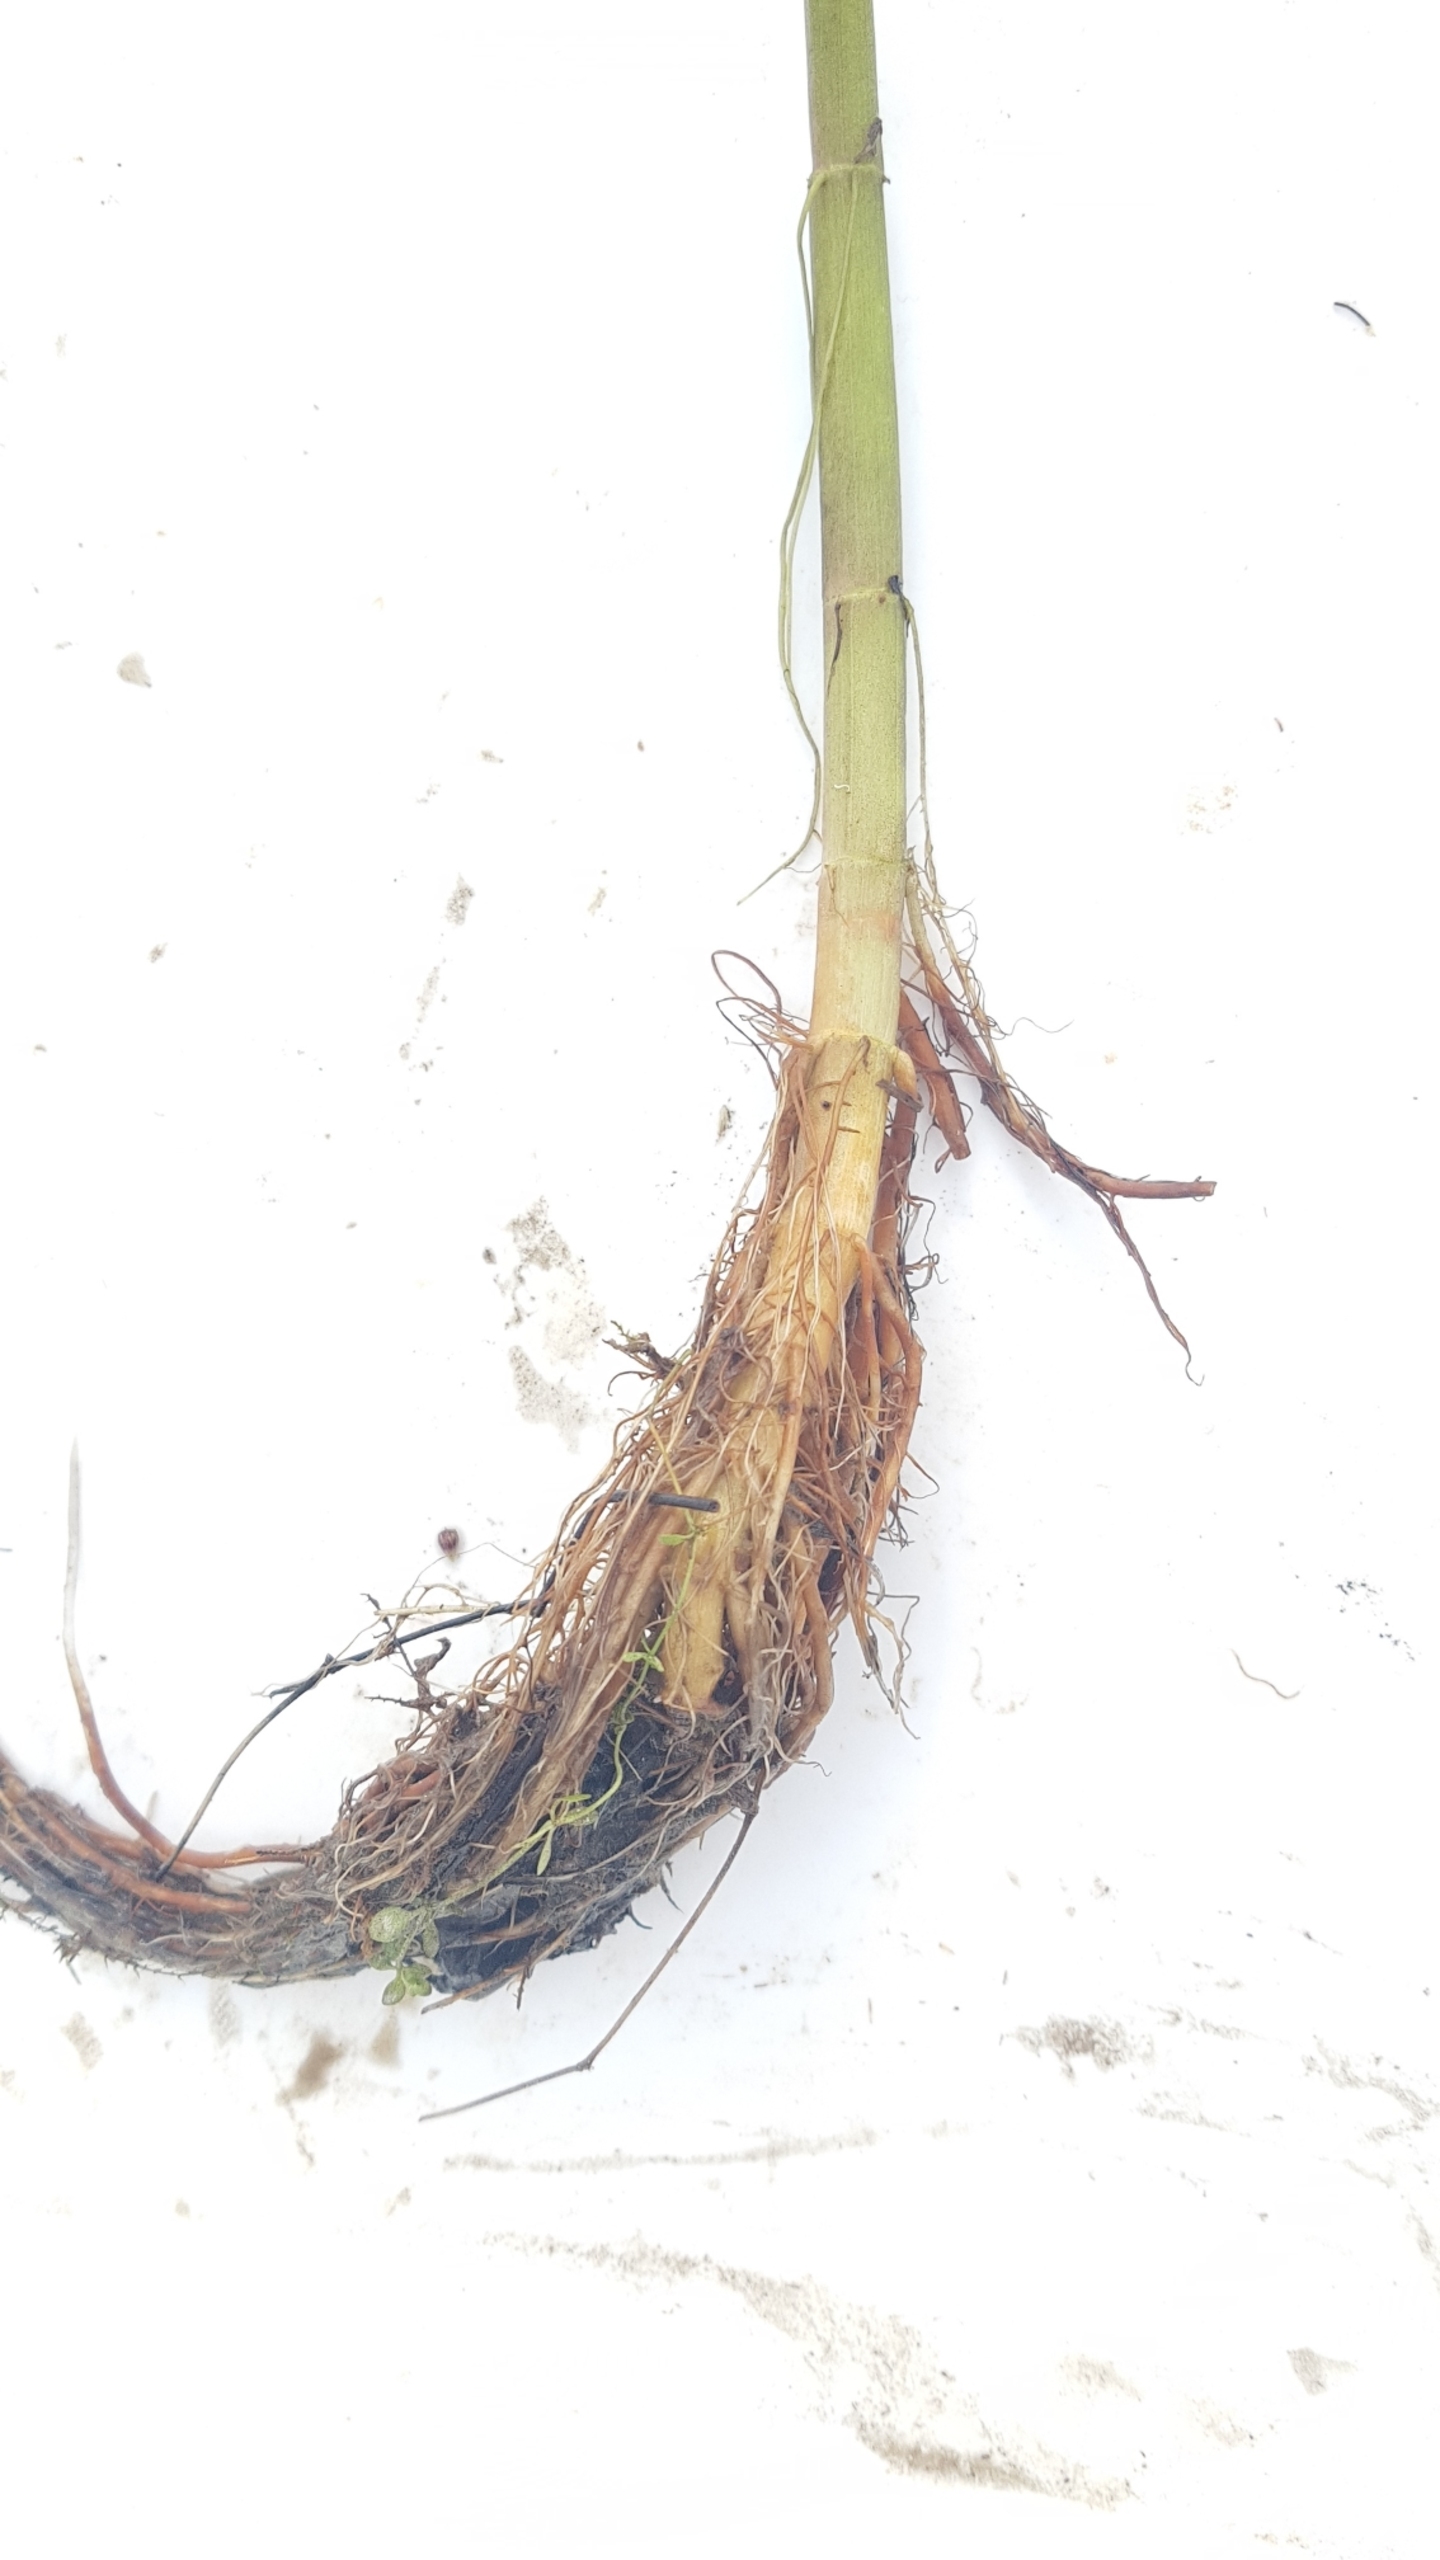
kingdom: Plantae
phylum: Tracheophyta
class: Magnoliopsida
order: Apiales
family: Apiaceae
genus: Oenanthe
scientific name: Oenanthe aquatica
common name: Billebo-klaseskærm
